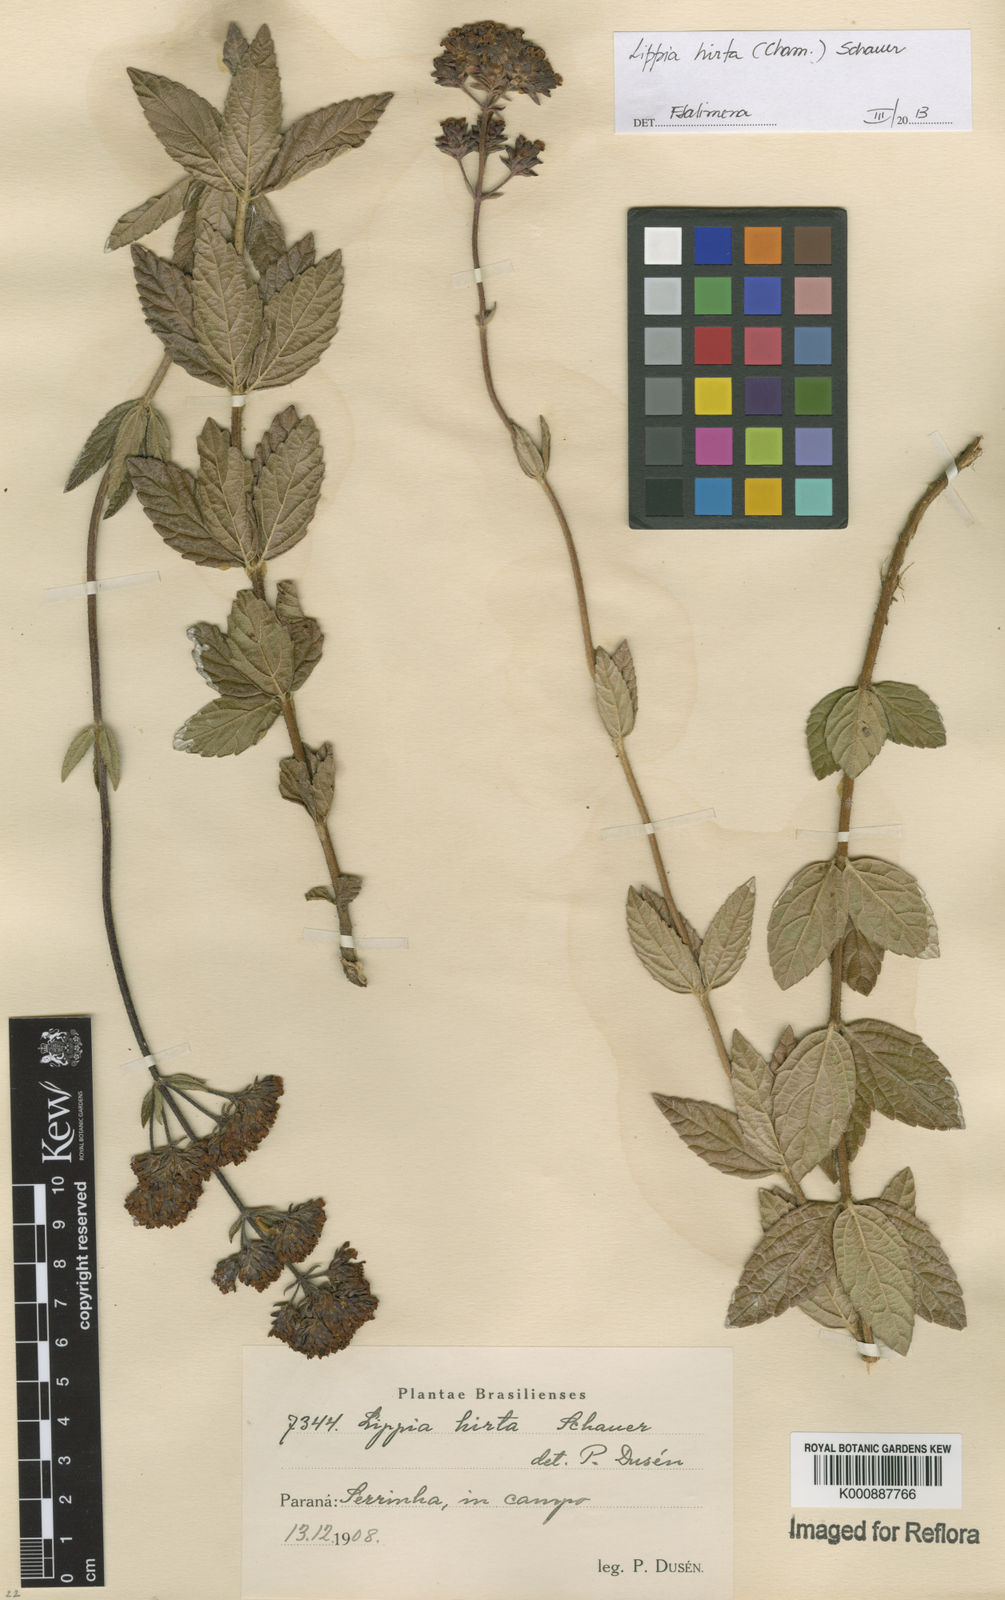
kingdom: Plantae
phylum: Tracheophyta
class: Magnoliopsida
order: Lamiales
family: Verbenaceae
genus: Lippia
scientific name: Lippia hirta
